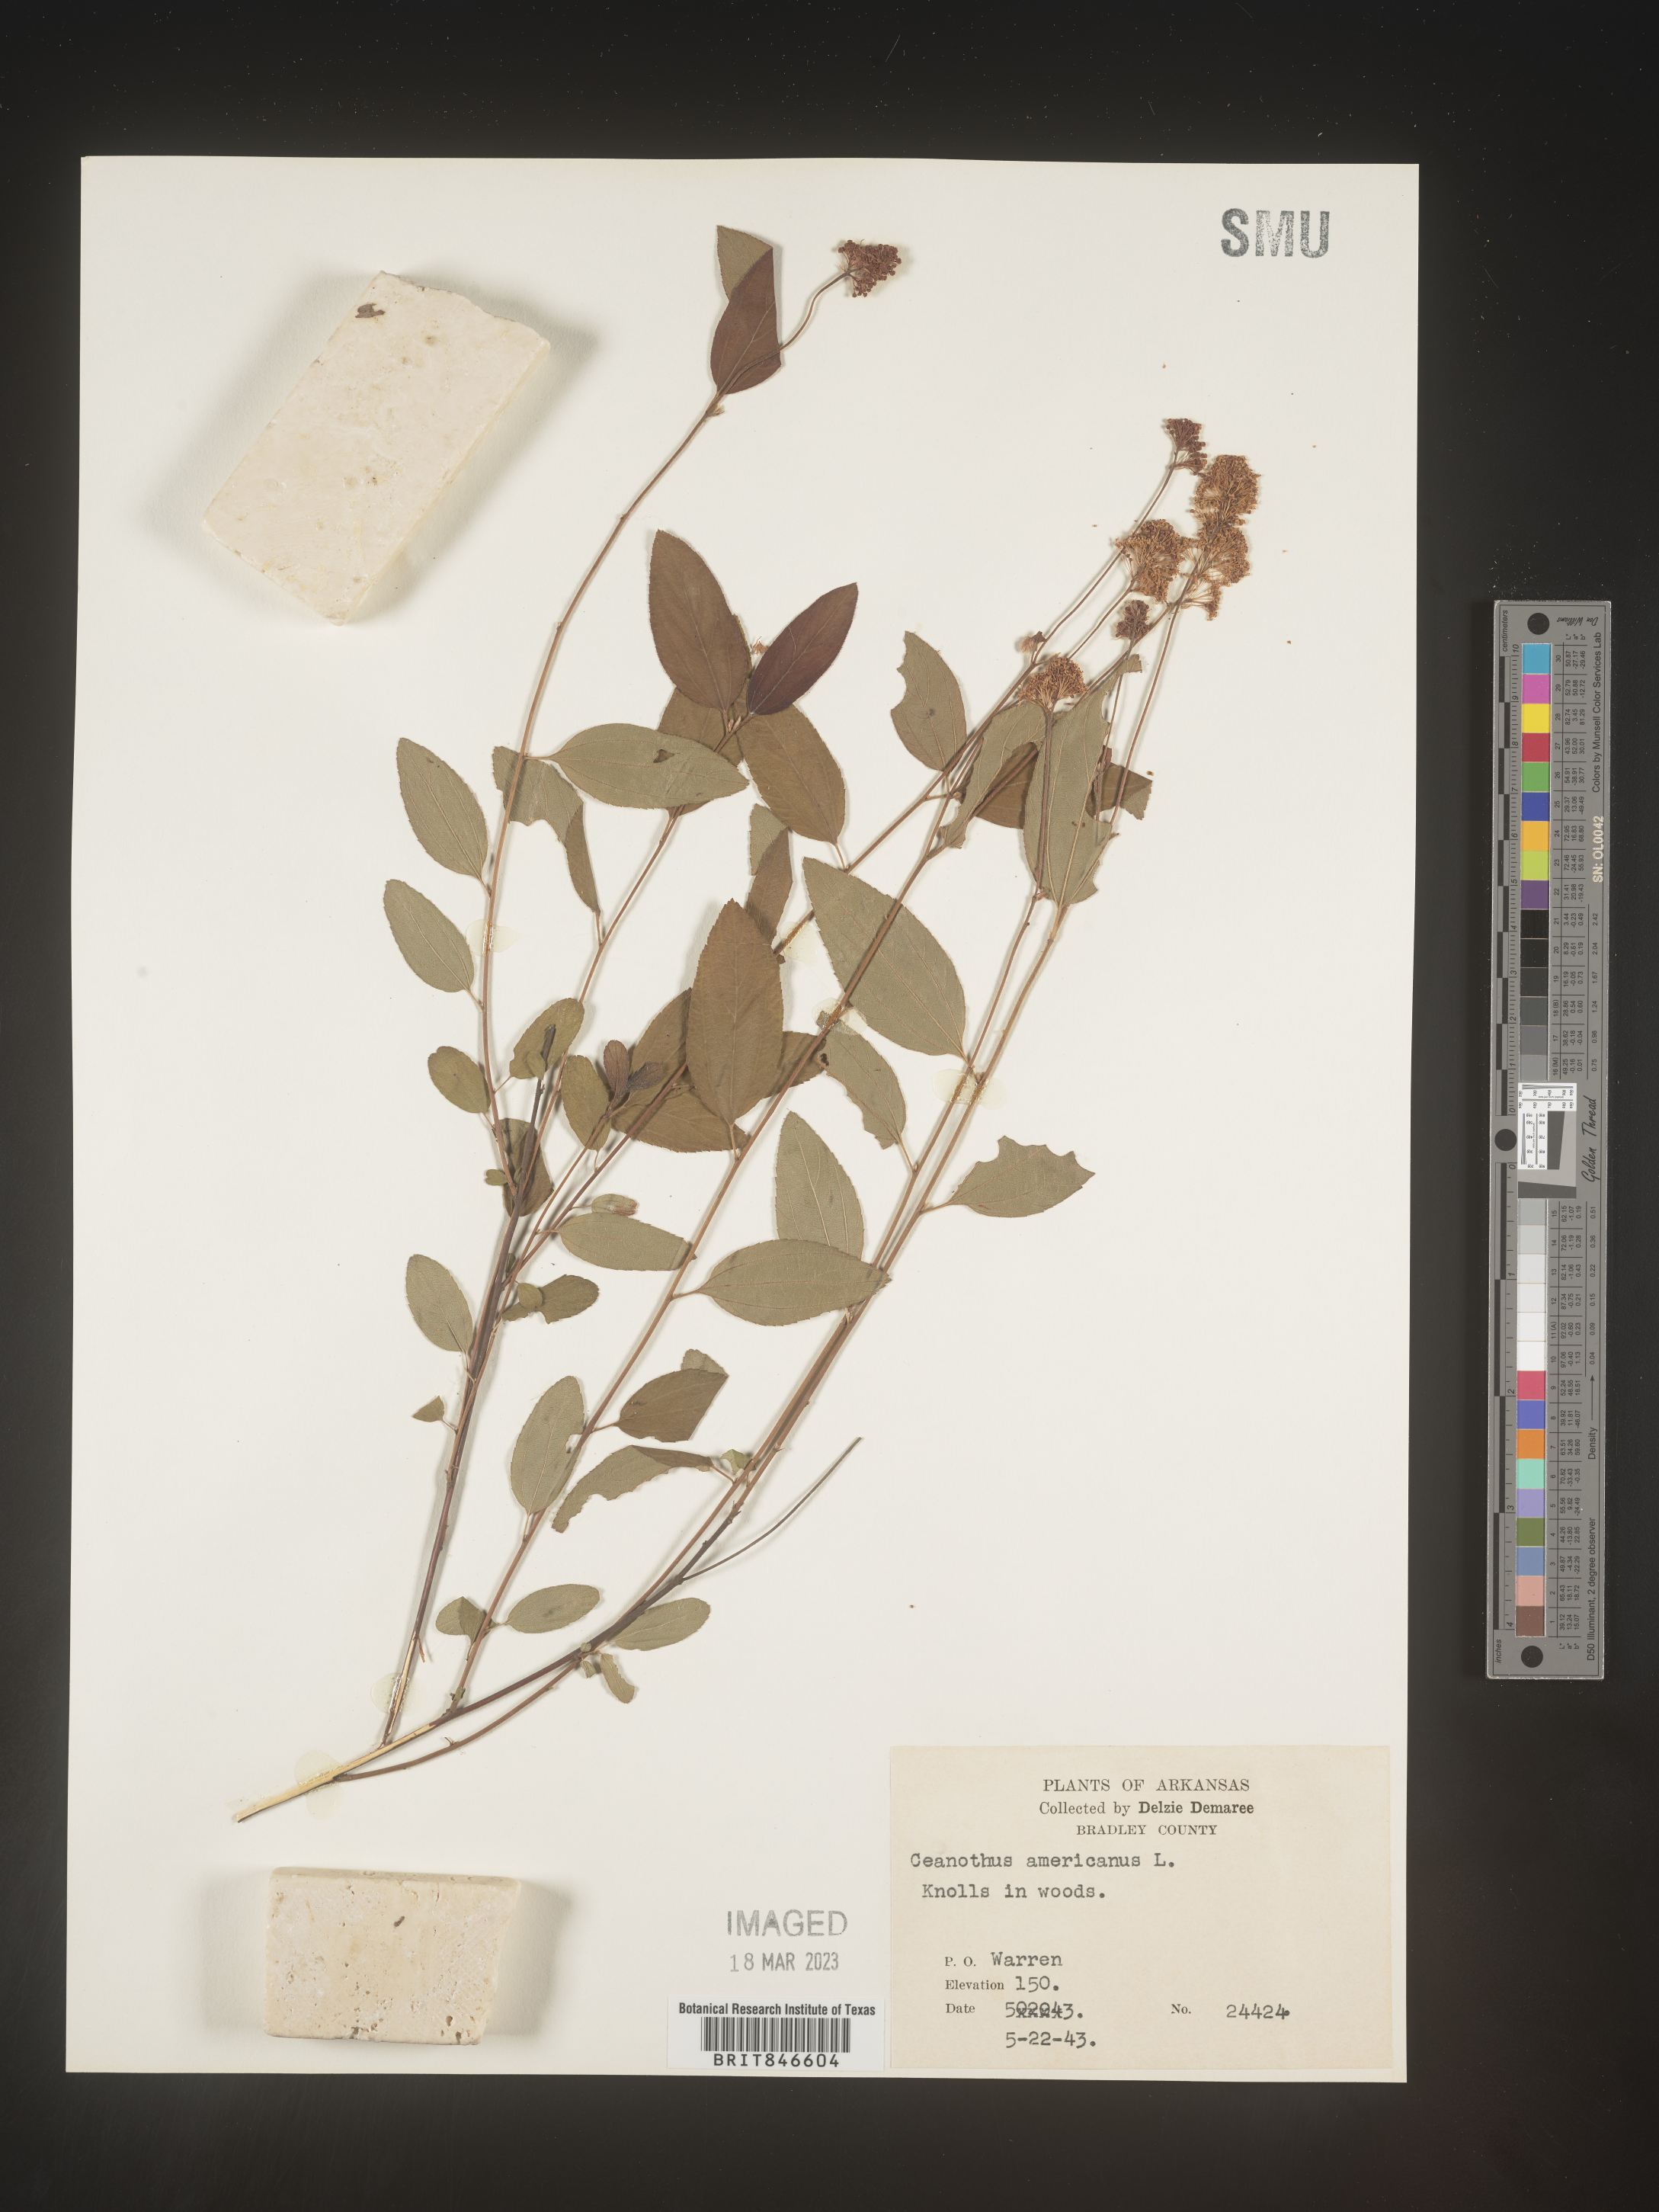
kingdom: Plantae
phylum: Tracheophyta
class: Magnoliopsida
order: Rosales
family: Rhamnaceae
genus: Ceanothus
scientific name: Ceanothus americanus
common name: Redroot
